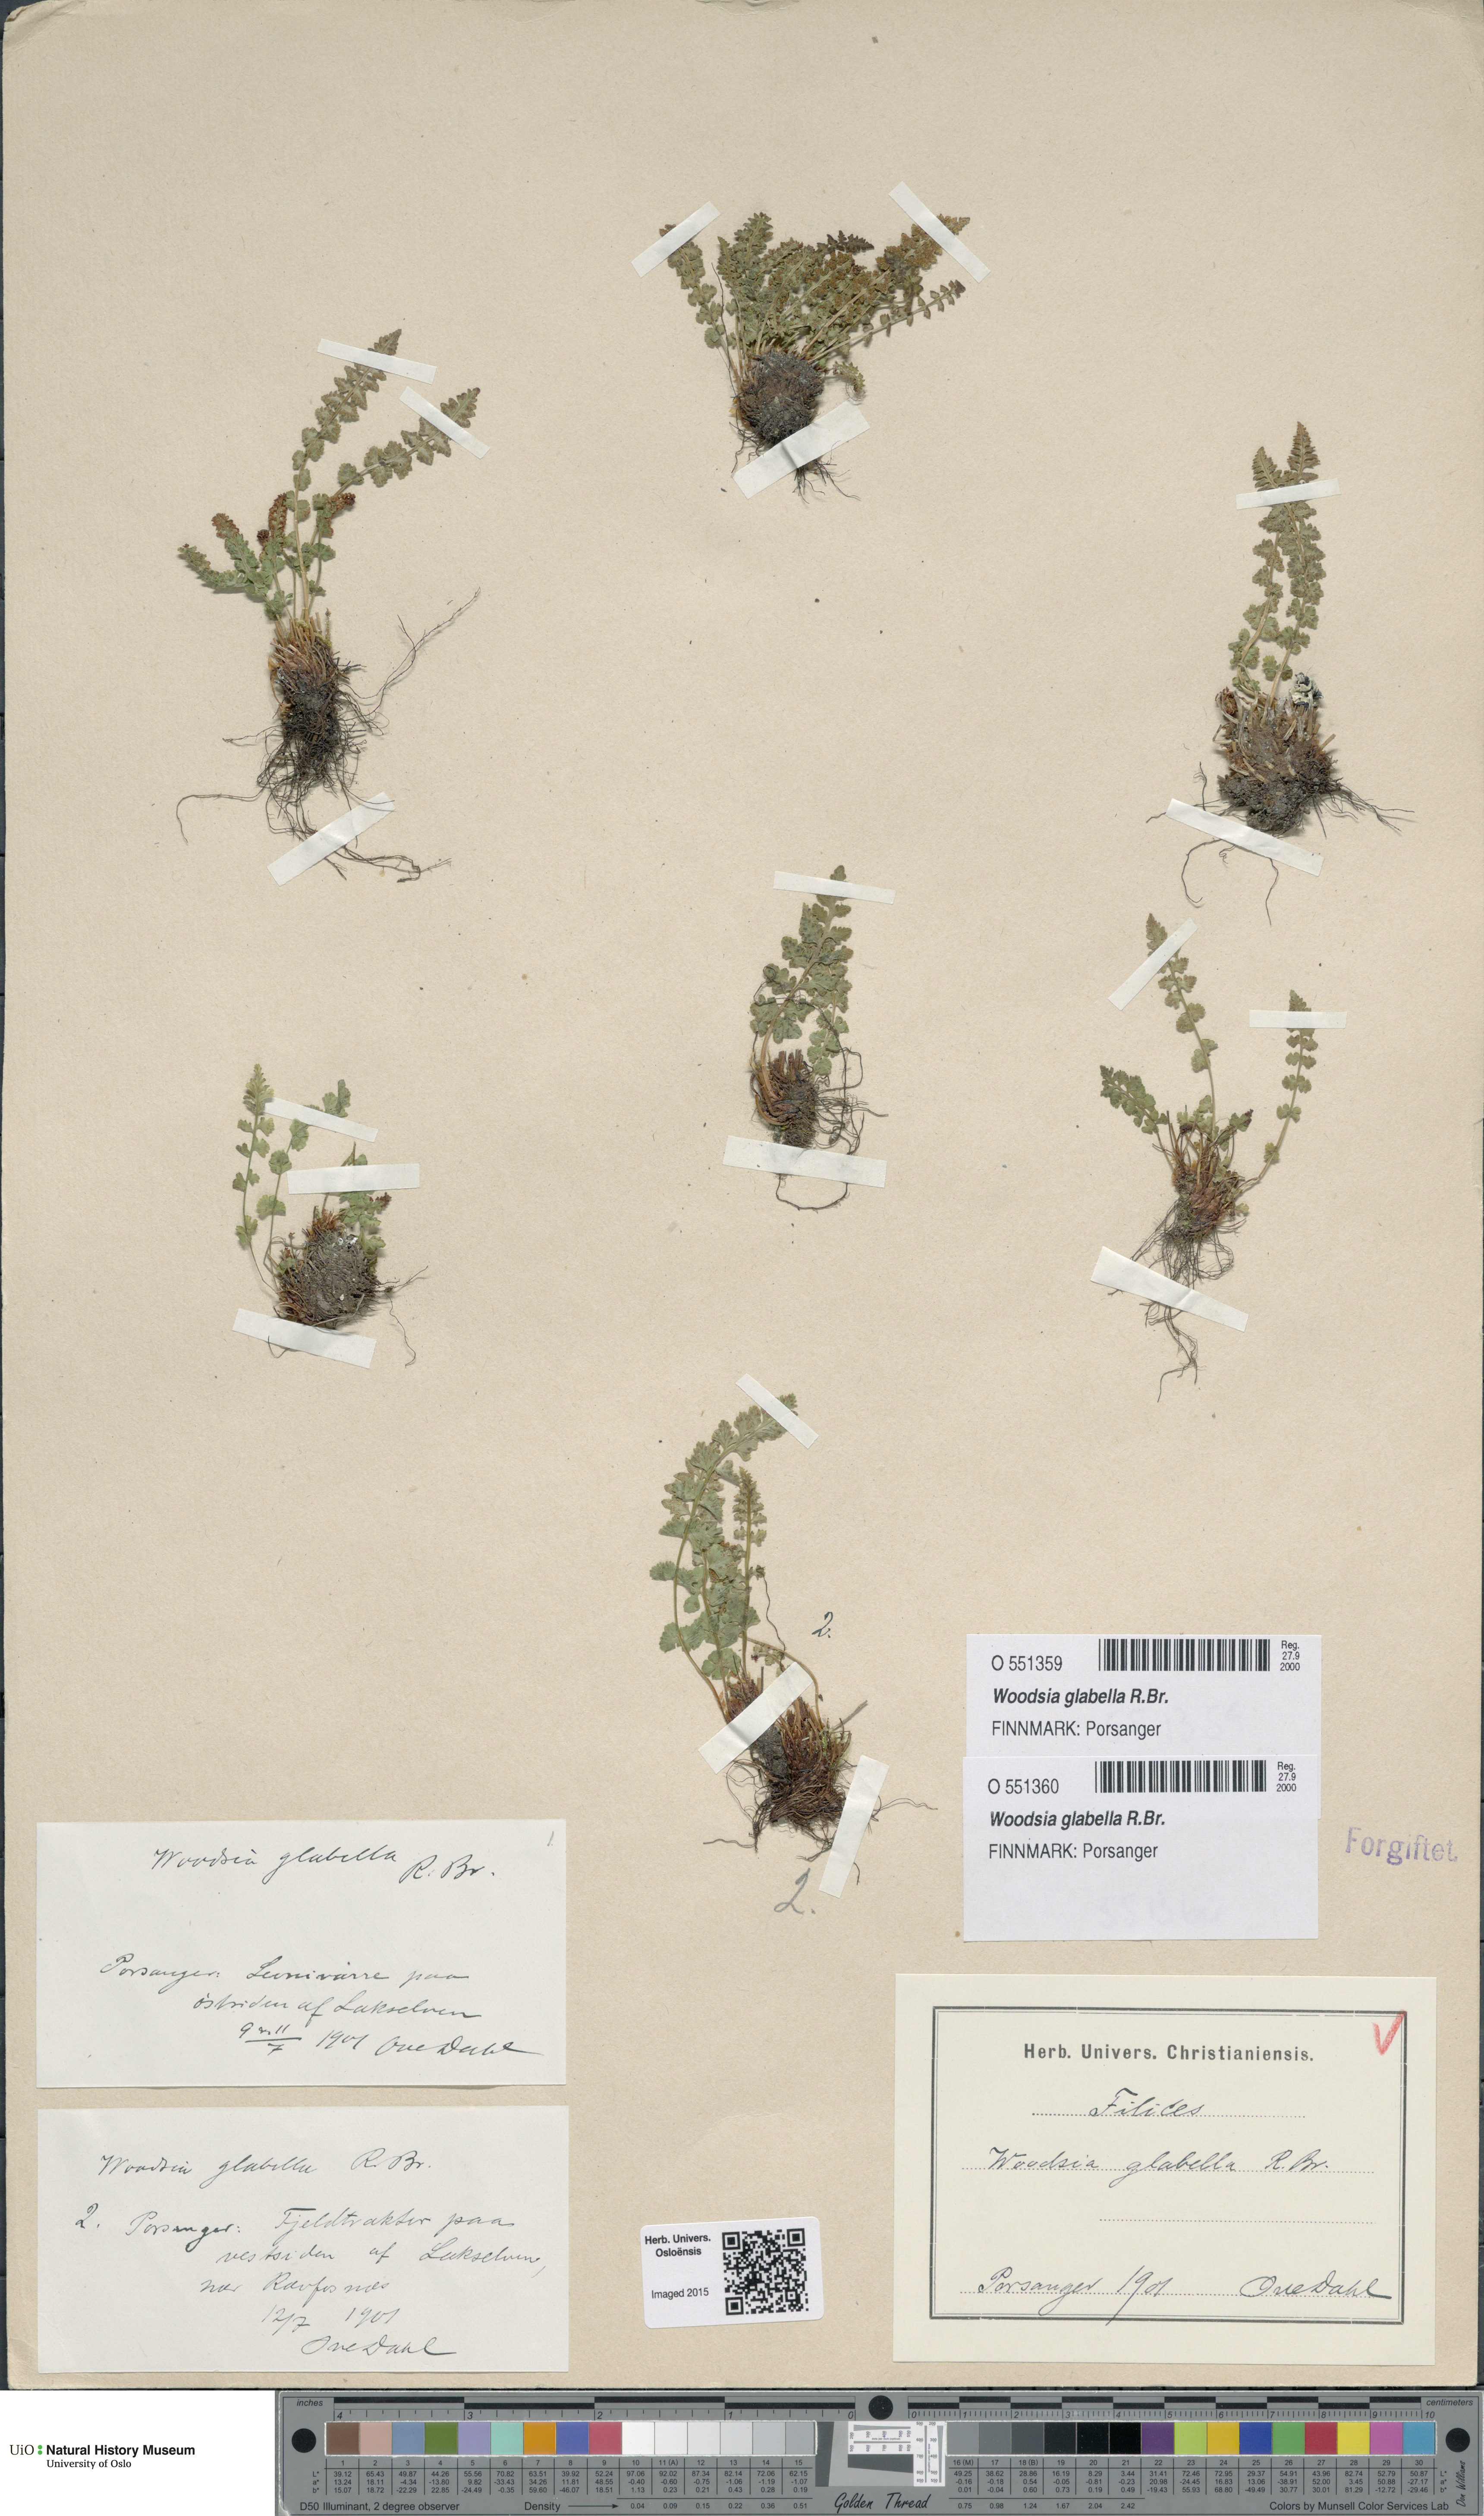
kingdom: Plantae
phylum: Tracheophyta
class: Polypodiopsida
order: Polypodiales
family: Woodsiaceae
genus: Woodsia
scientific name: Woodsia glabella
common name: Smooth woodsia
